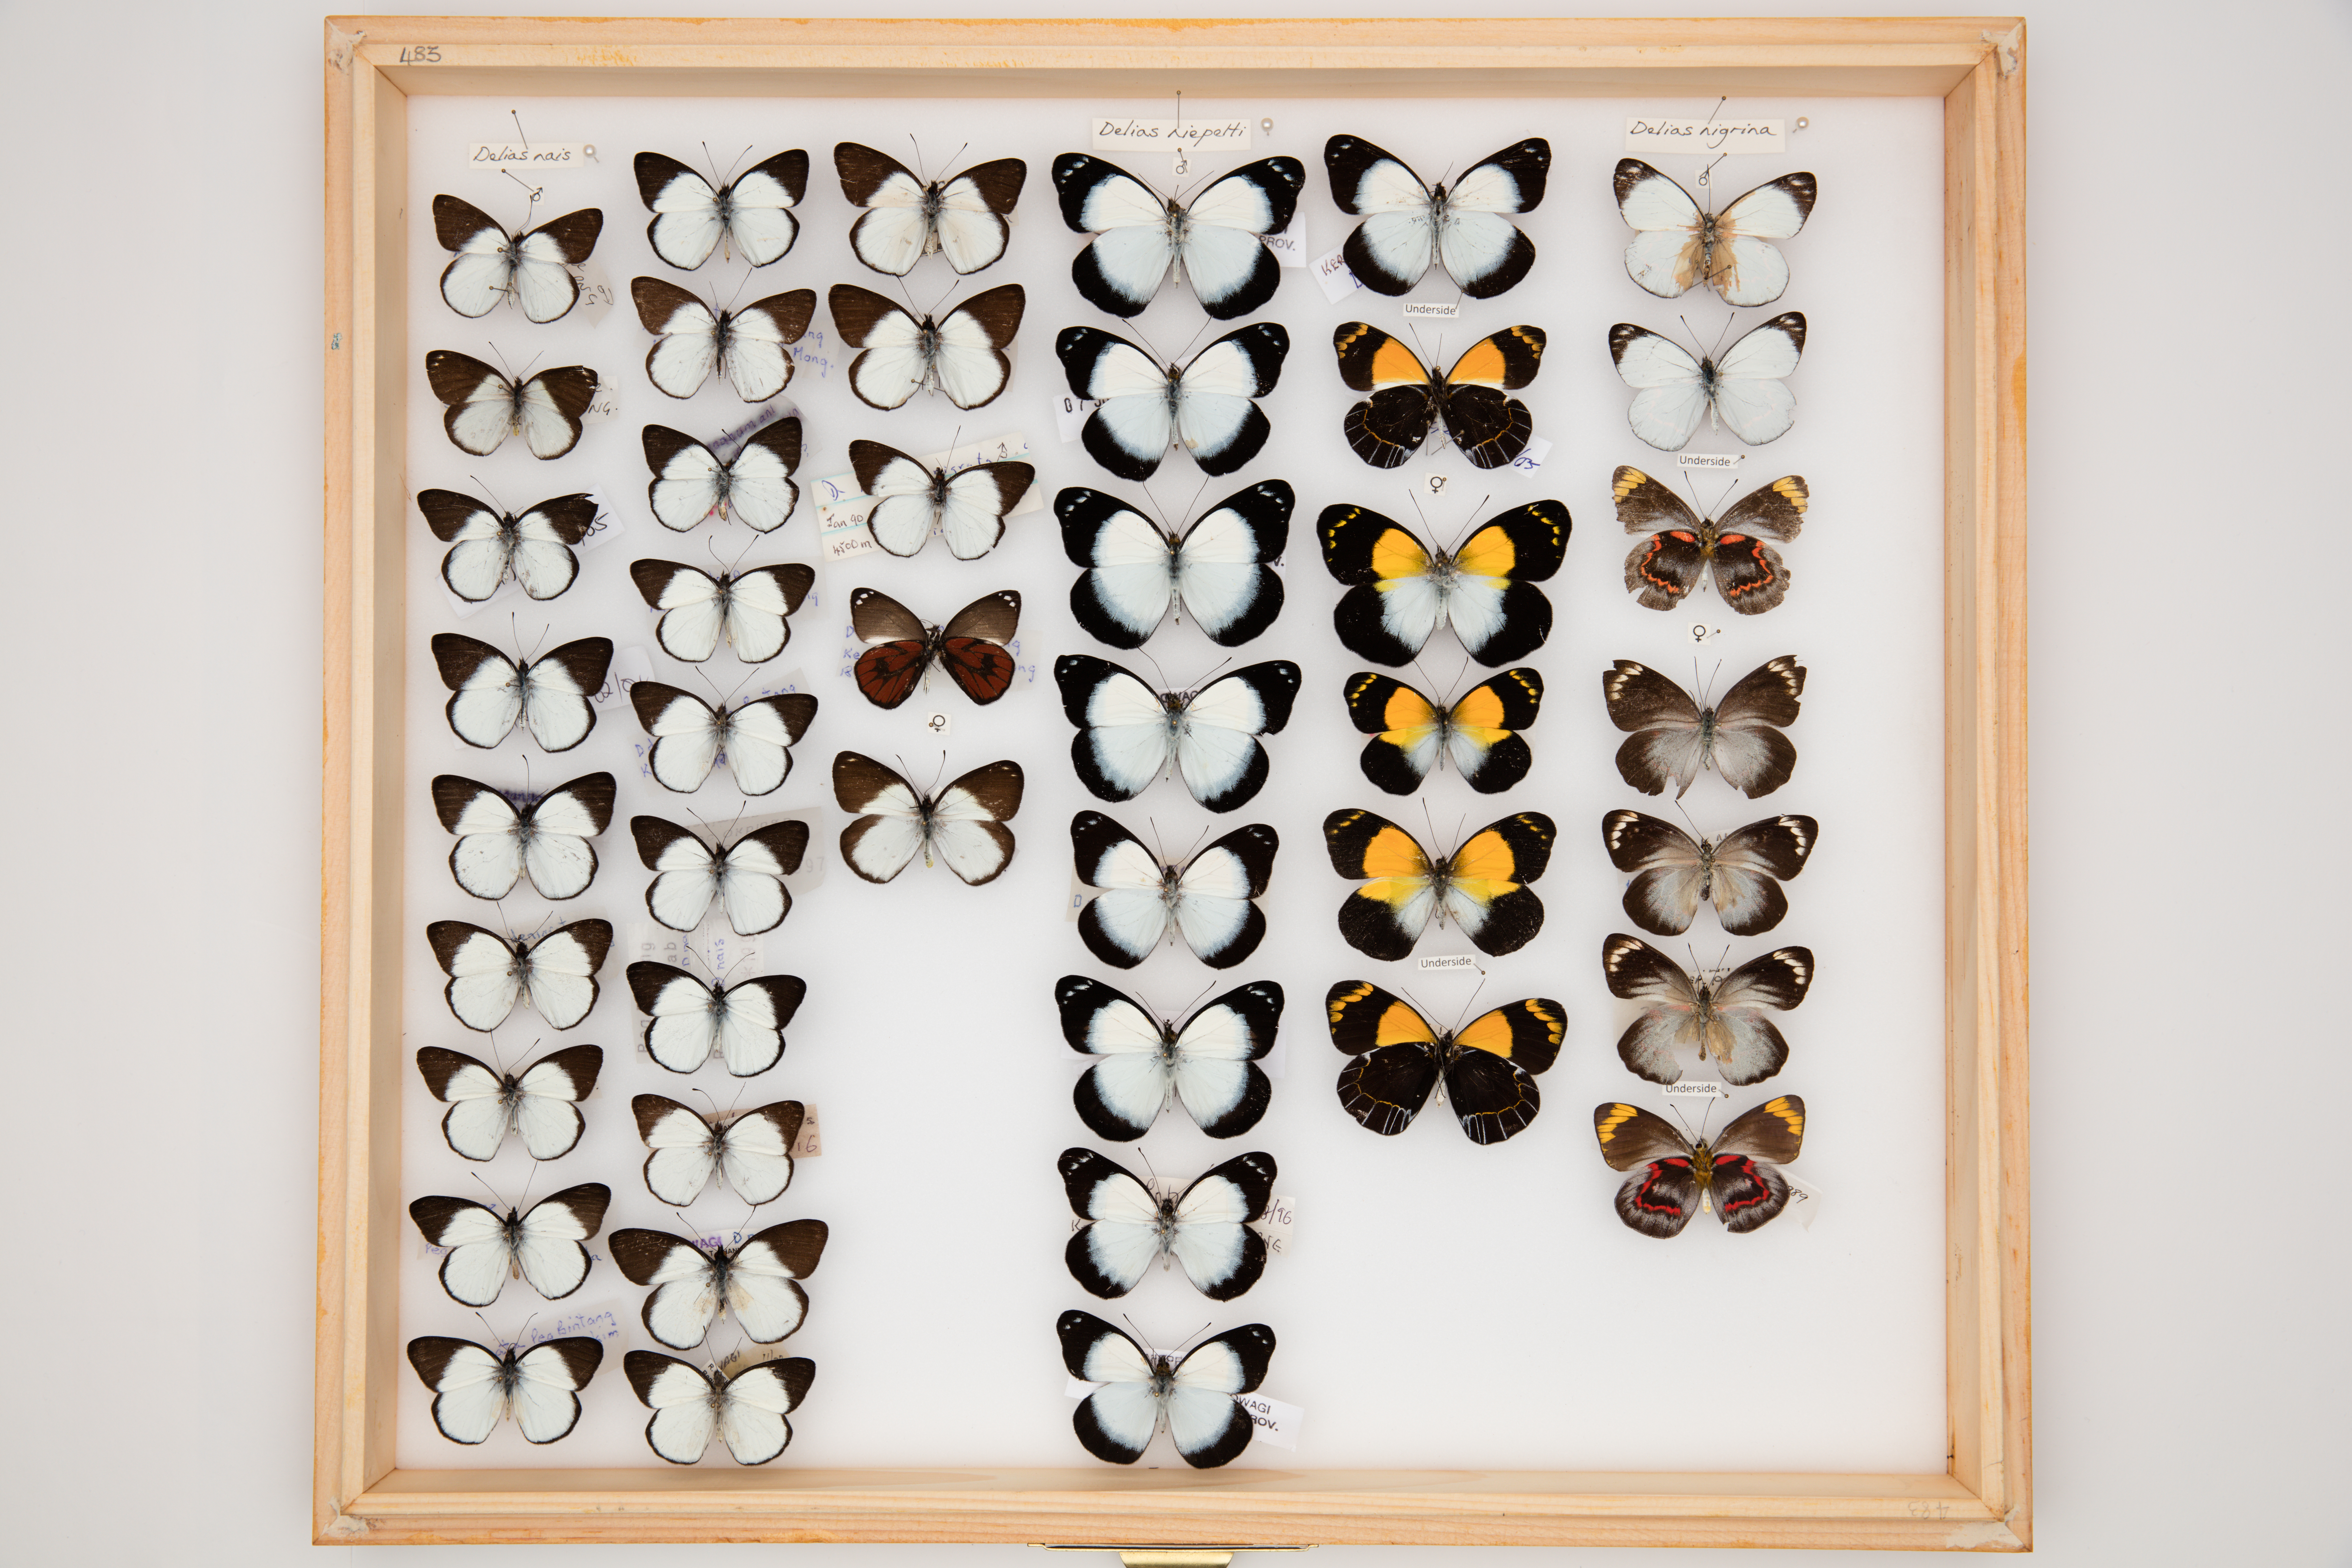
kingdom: Animalia
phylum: Arthropoda
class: Insecta
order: Lepidoptera
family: Pieridae
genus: Delias
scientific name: Delias nais
